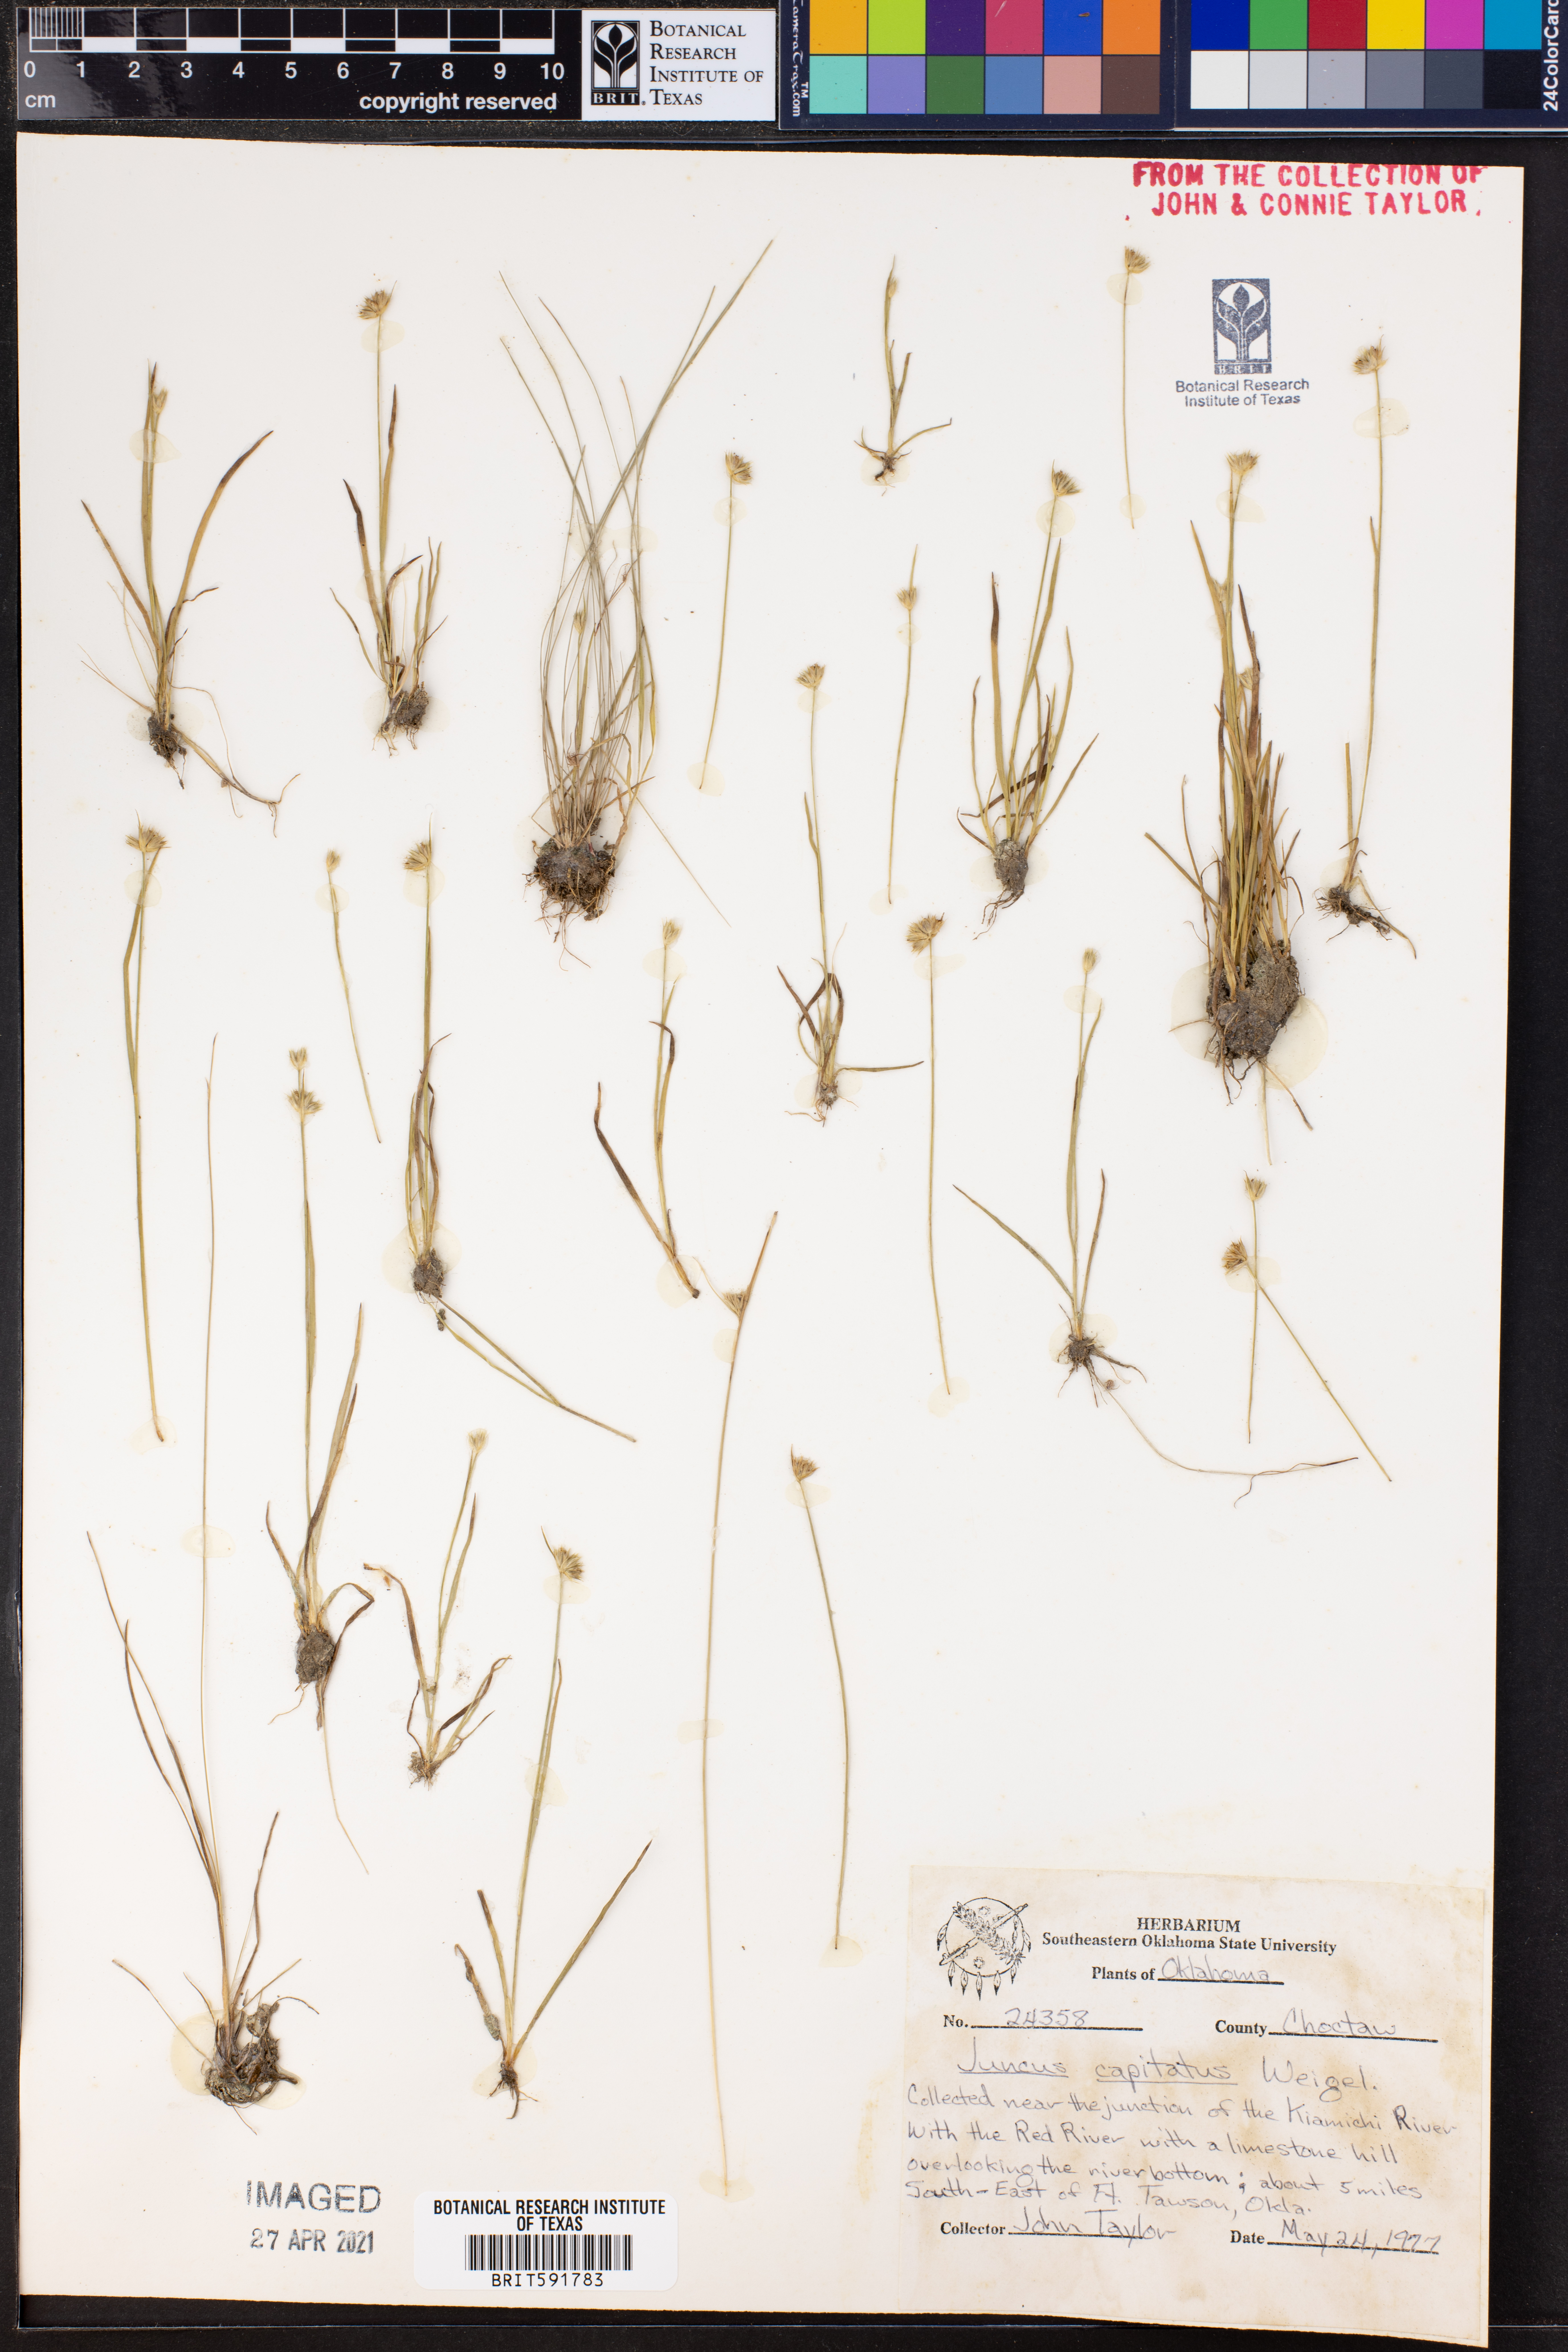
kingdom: Plantae
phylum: Tracheophyta
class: Liliopsida
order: Poales
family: Juncaceae
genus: Juncus
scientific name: Juncus capitatus
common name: Dwarf rush
